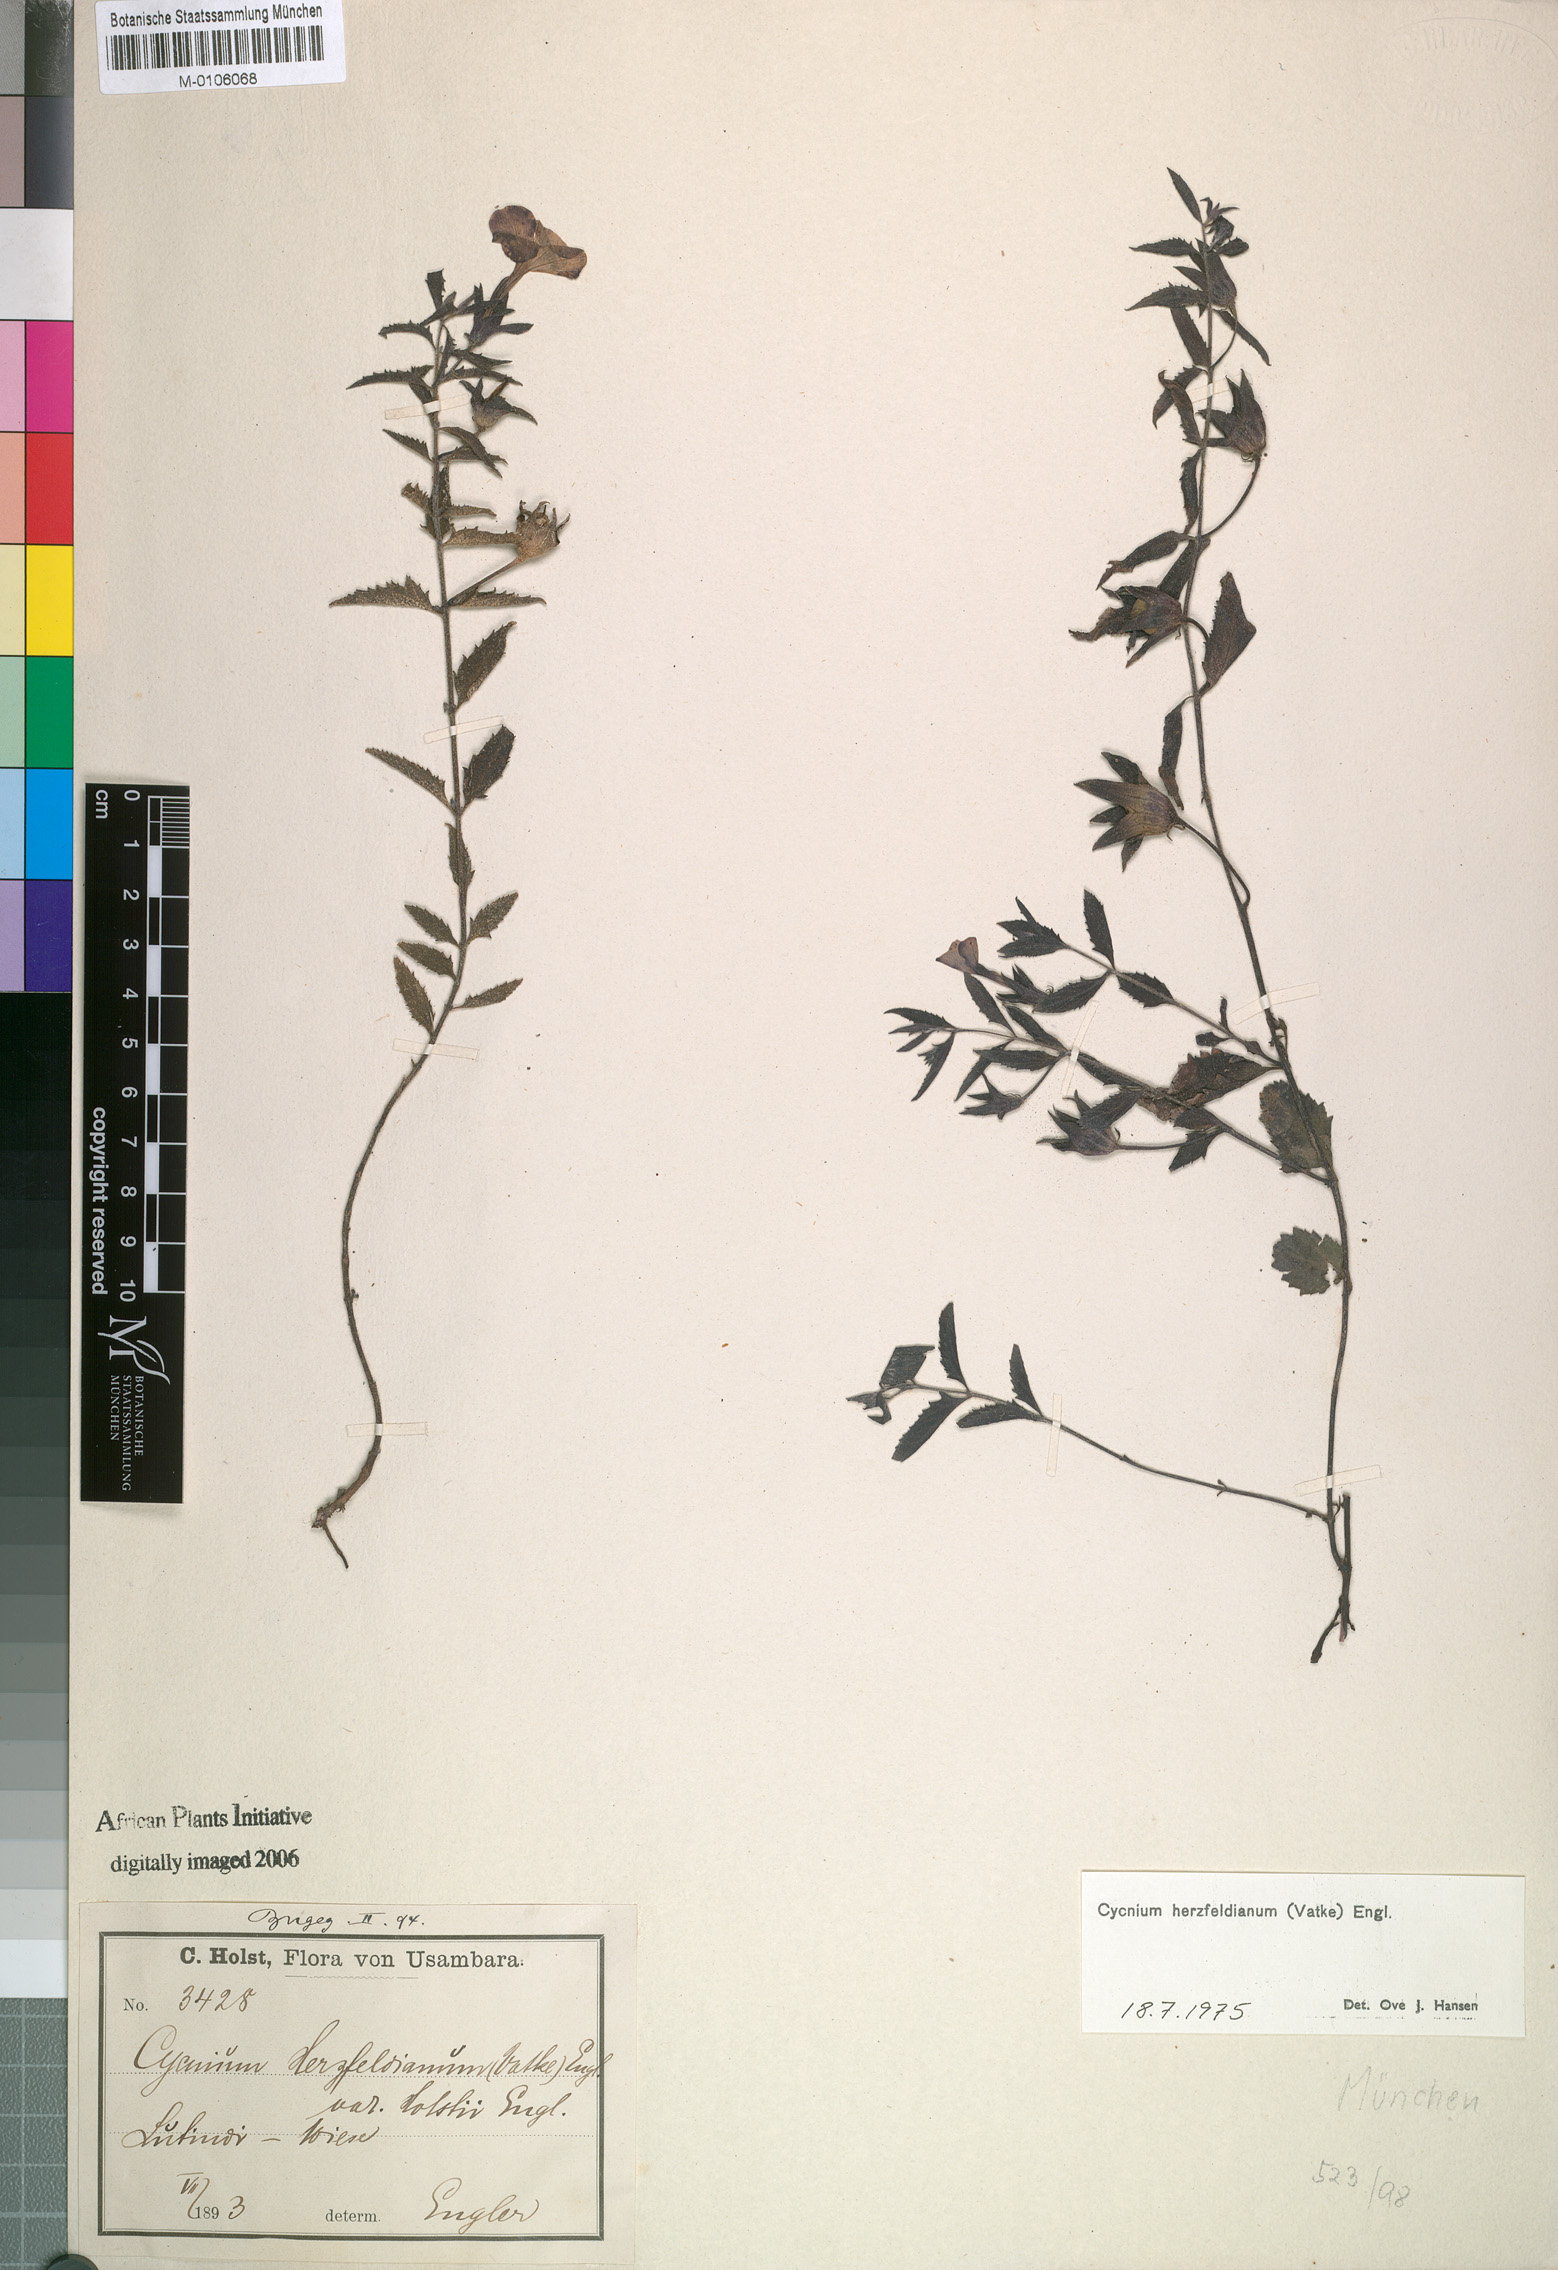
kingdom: Plantae
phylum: Tracheophyta
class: Magnoliopsida
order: Lamiales
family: Orobanchaceae
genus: Cycnium
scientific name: Cycnium herzfeldianum
